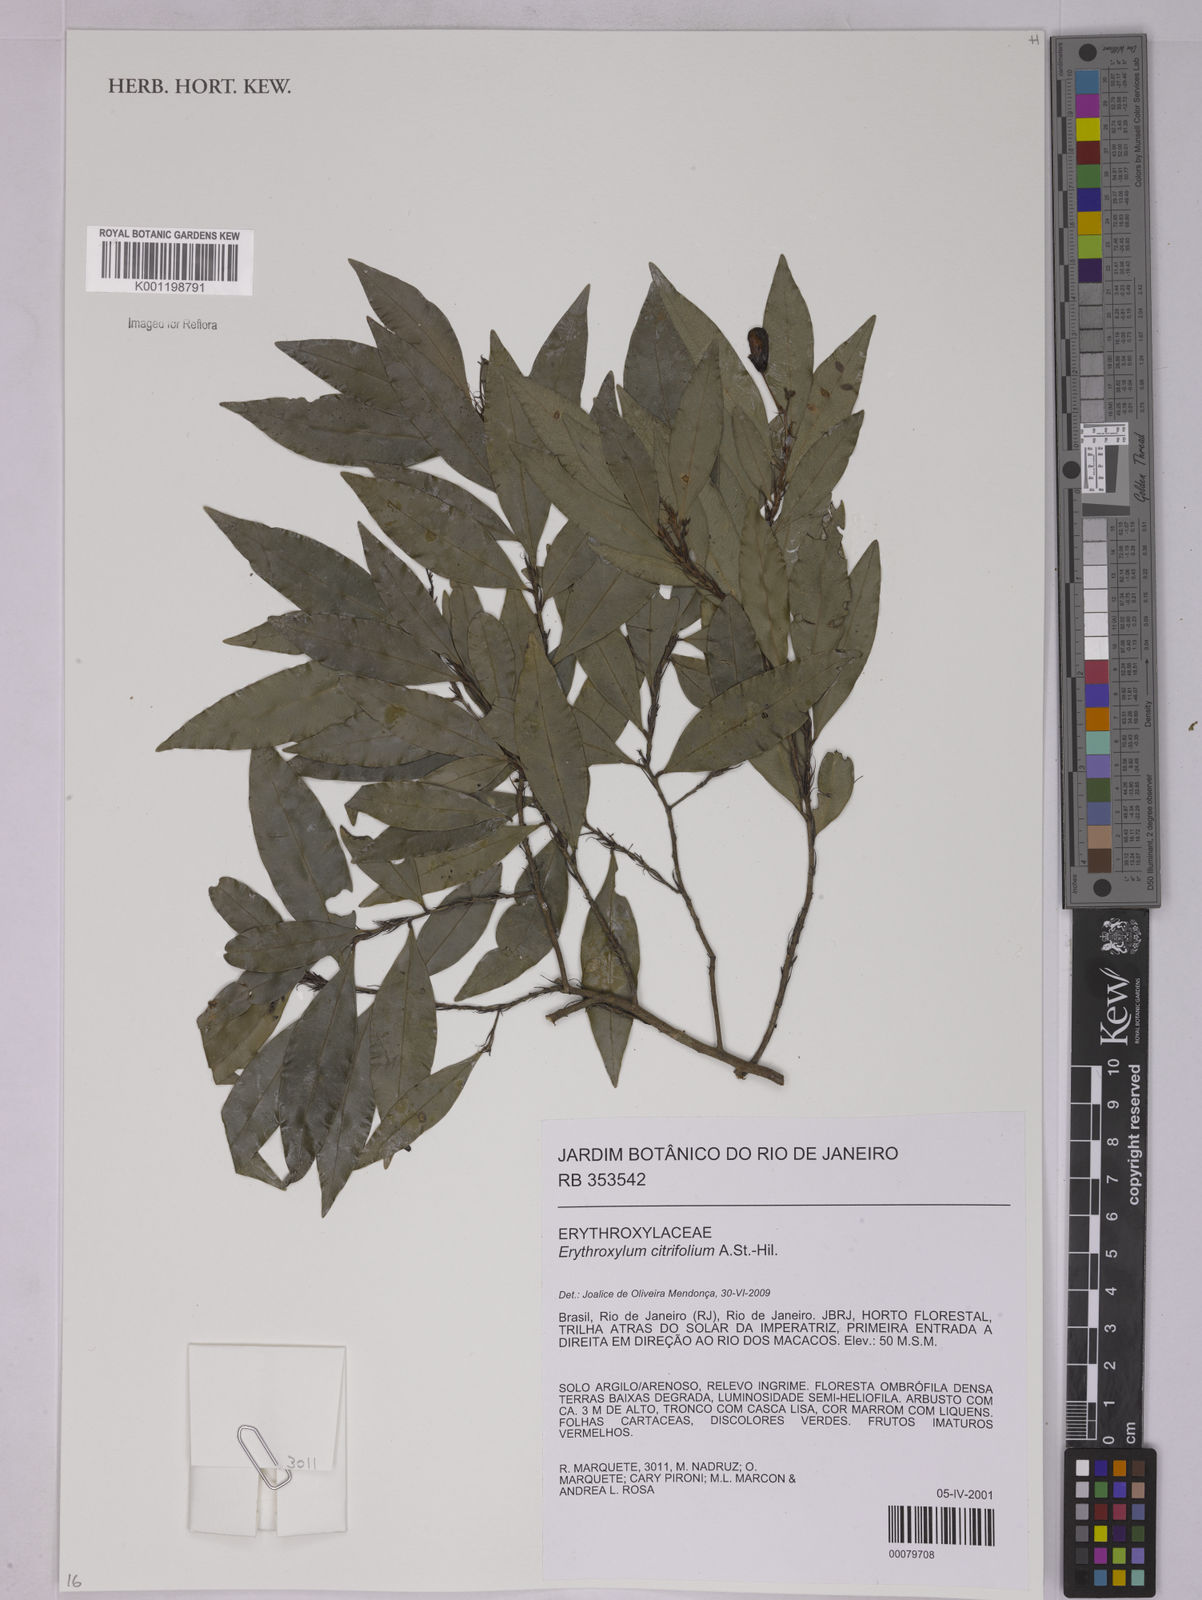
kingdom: Plantae
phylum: Tracheophyta
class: Magnoliopsida
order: Malpighiales
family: Erythroxylaceae
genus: Erythroxylum
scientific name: Erythroxylum citrifolium
